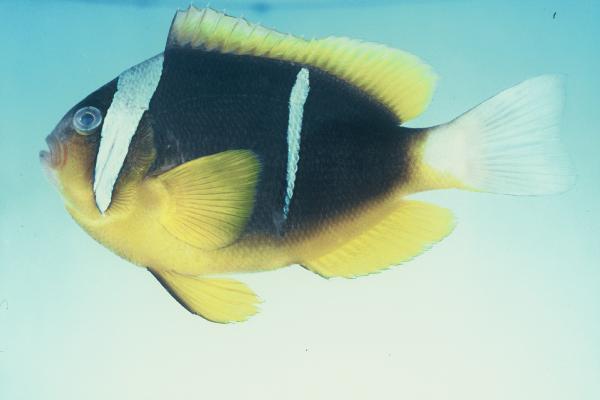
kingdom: Animalia
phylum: Chordata
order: Perciformes
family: Pomacentridae
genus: Amphiprion
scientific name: Amphiprion allardi
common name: Allard's anemonefish
